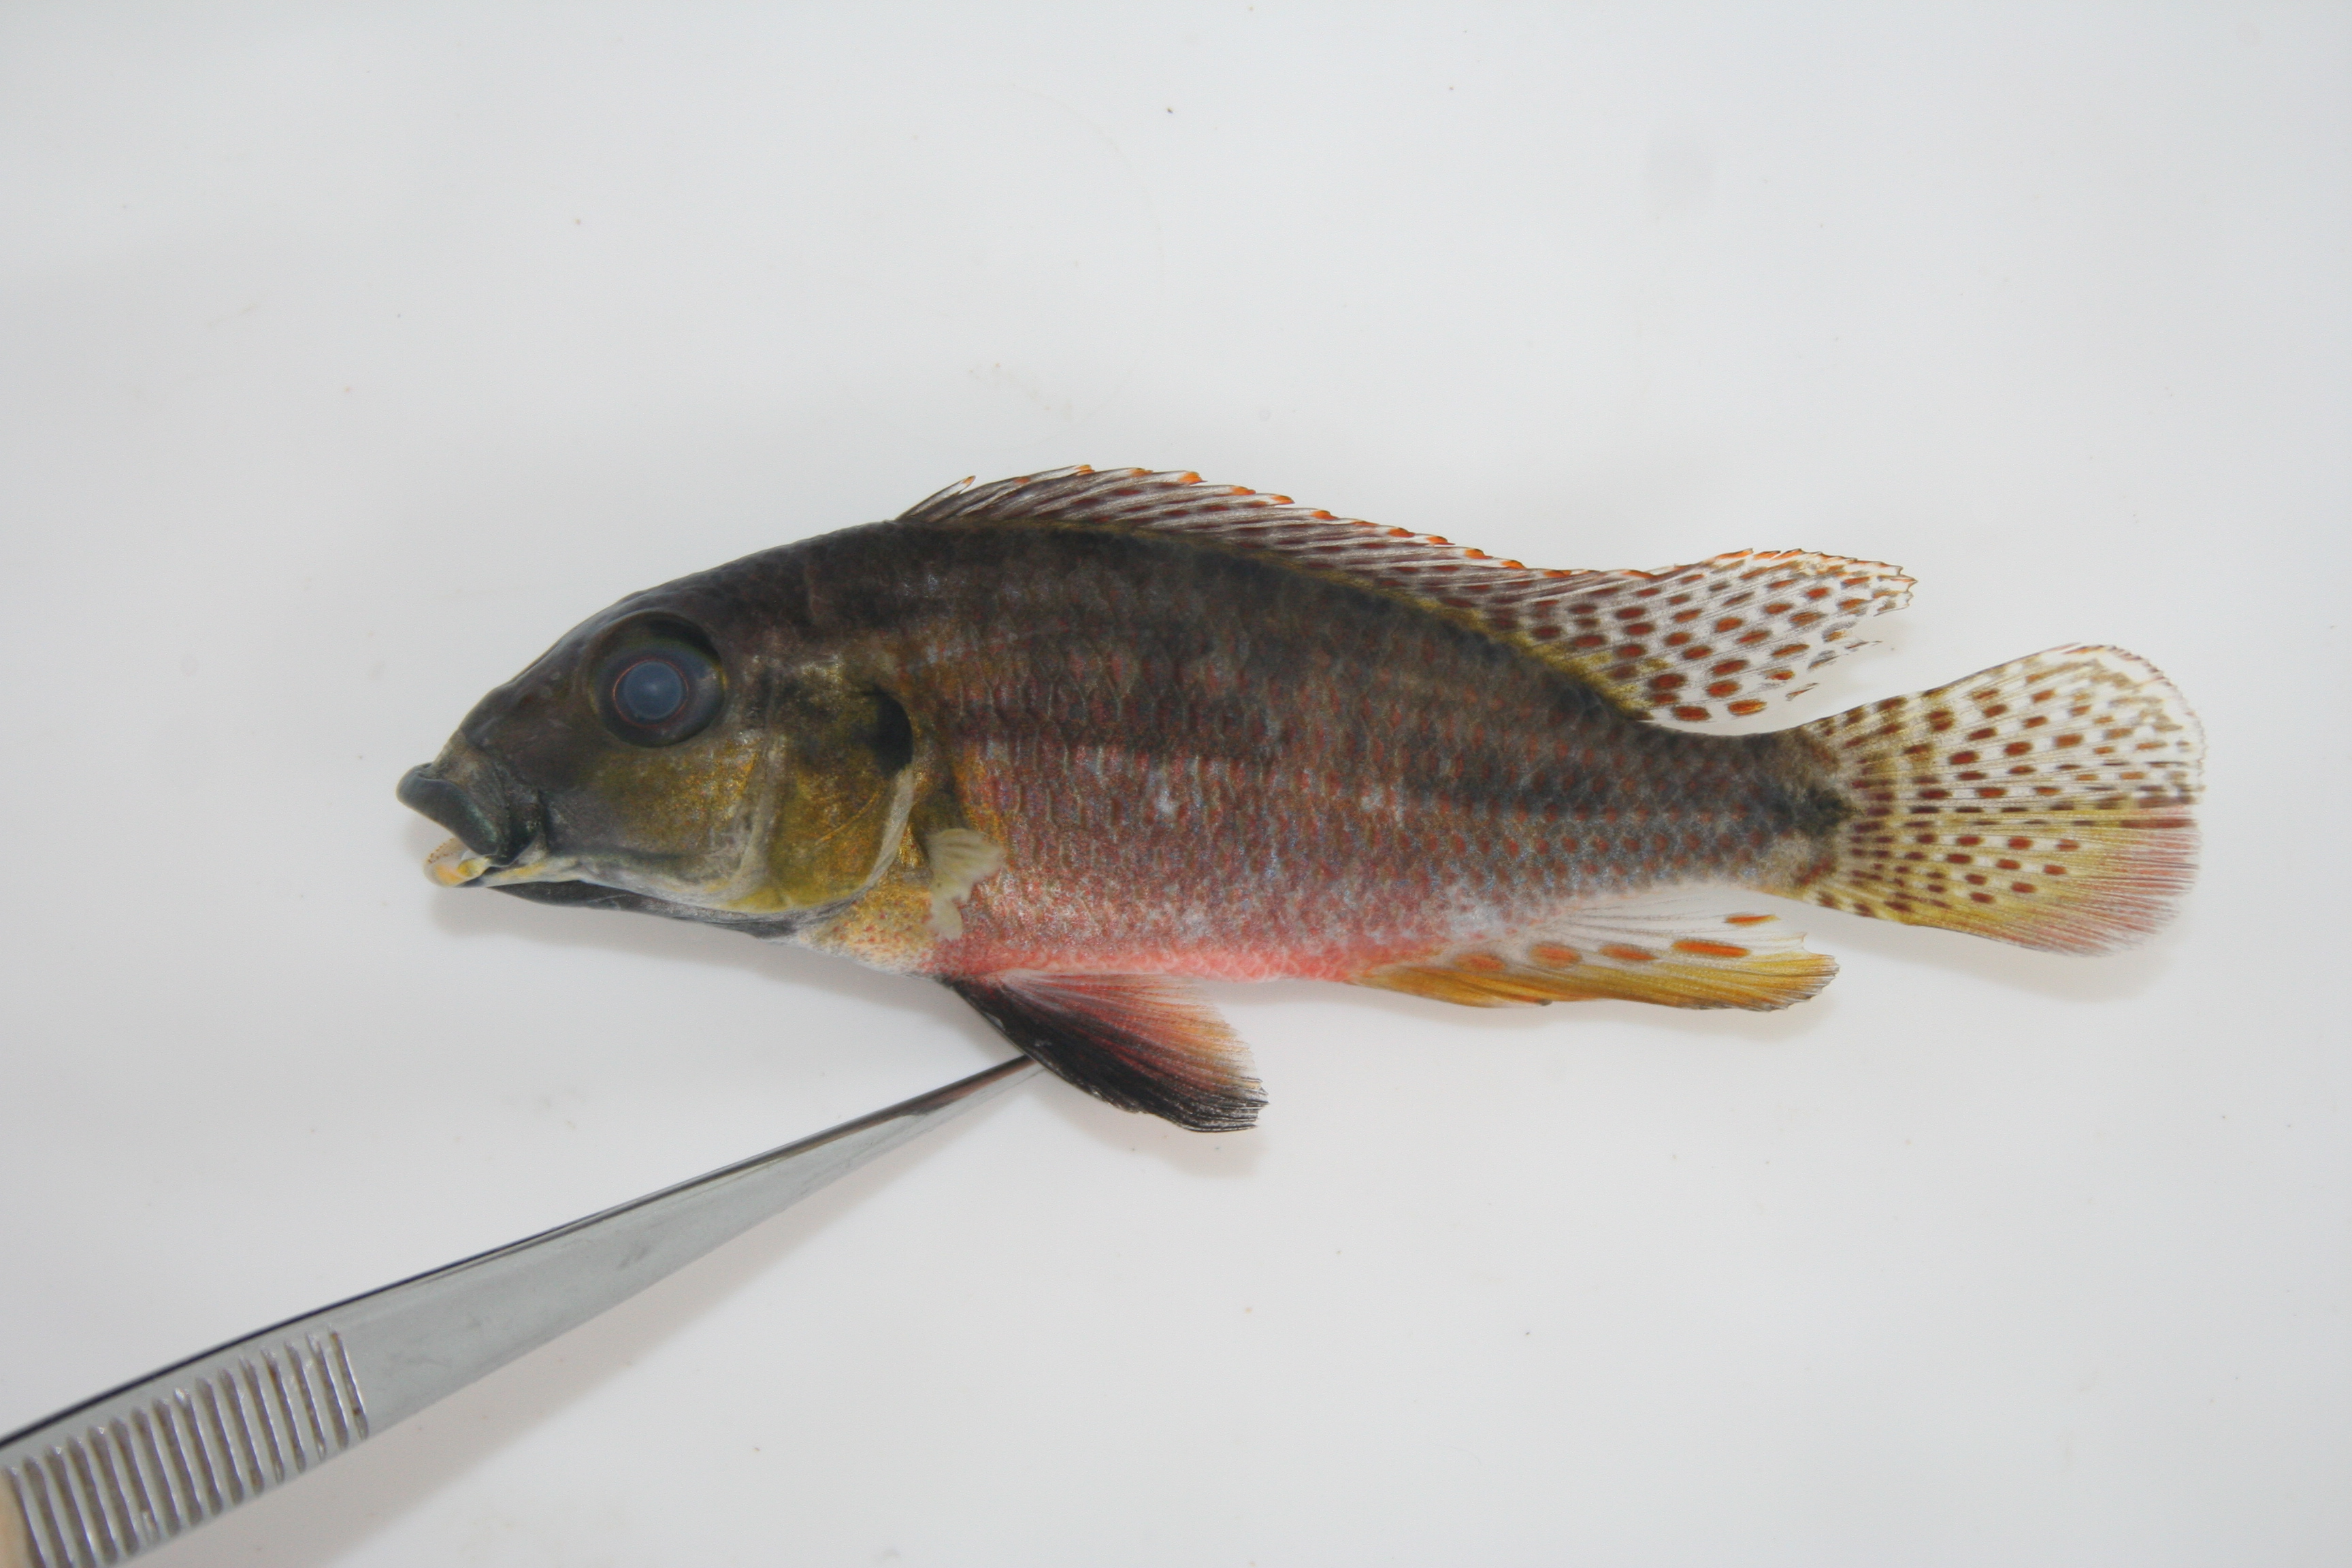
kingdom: Animalia
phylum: Chordata
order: Perciformes
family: Cichlidae
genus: Pharyngochromis
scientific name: Pharyngochromis
